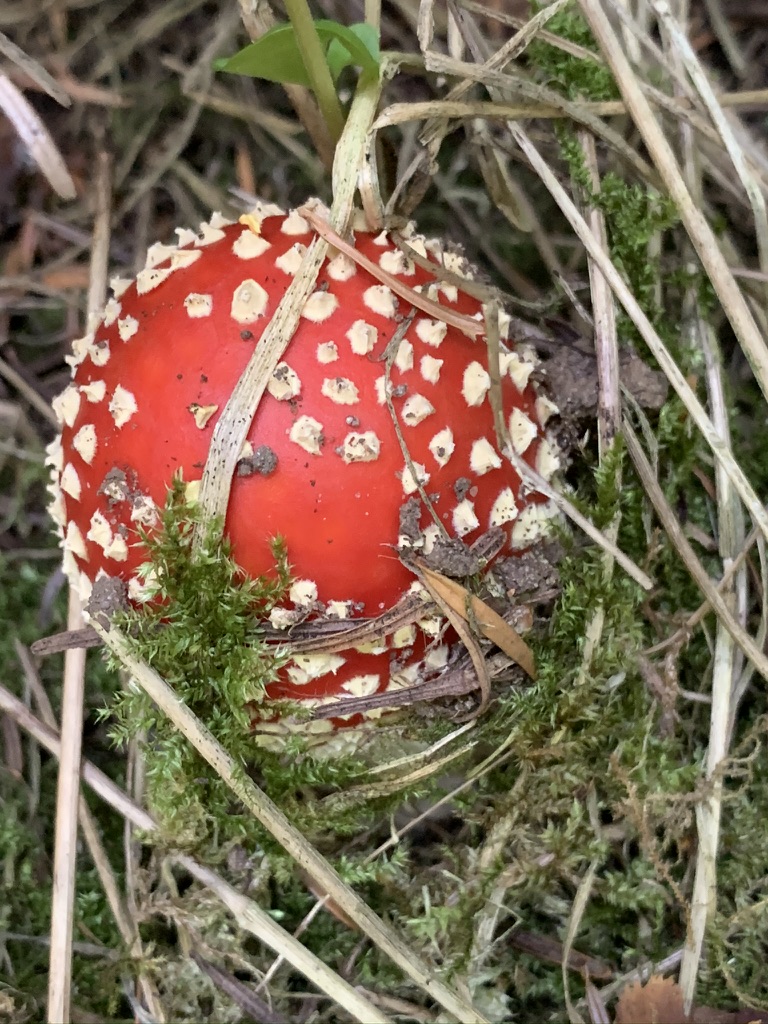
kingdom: Fungi
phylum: Basidiomycota
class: Agaricomycetes
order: Agaricales
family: Amanitaceae
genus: Amanita
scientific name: Amanita muscaria
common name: rød fluesvamp
